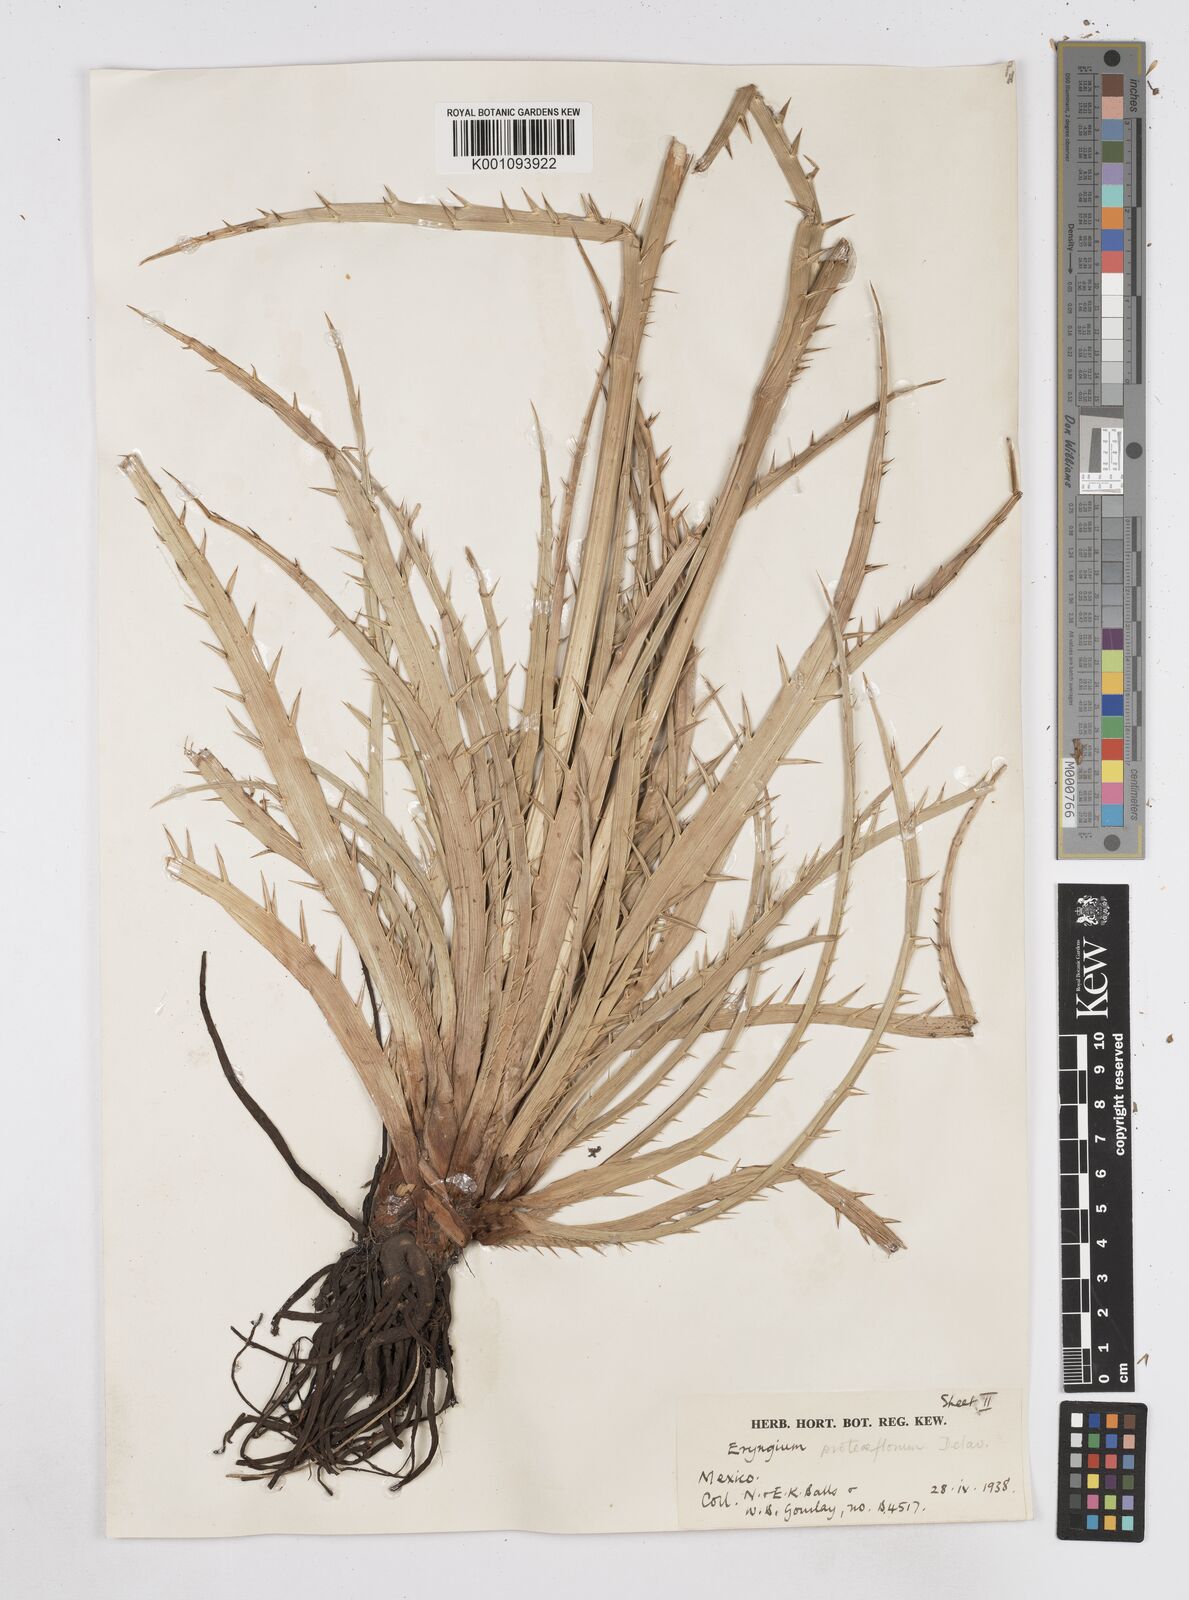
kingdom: Plantae
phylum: Tracheophyta
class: Magnoliopsida
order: Apiales
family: Apiaceae
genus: Eryngium
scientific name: Eryngium proteiflorum
